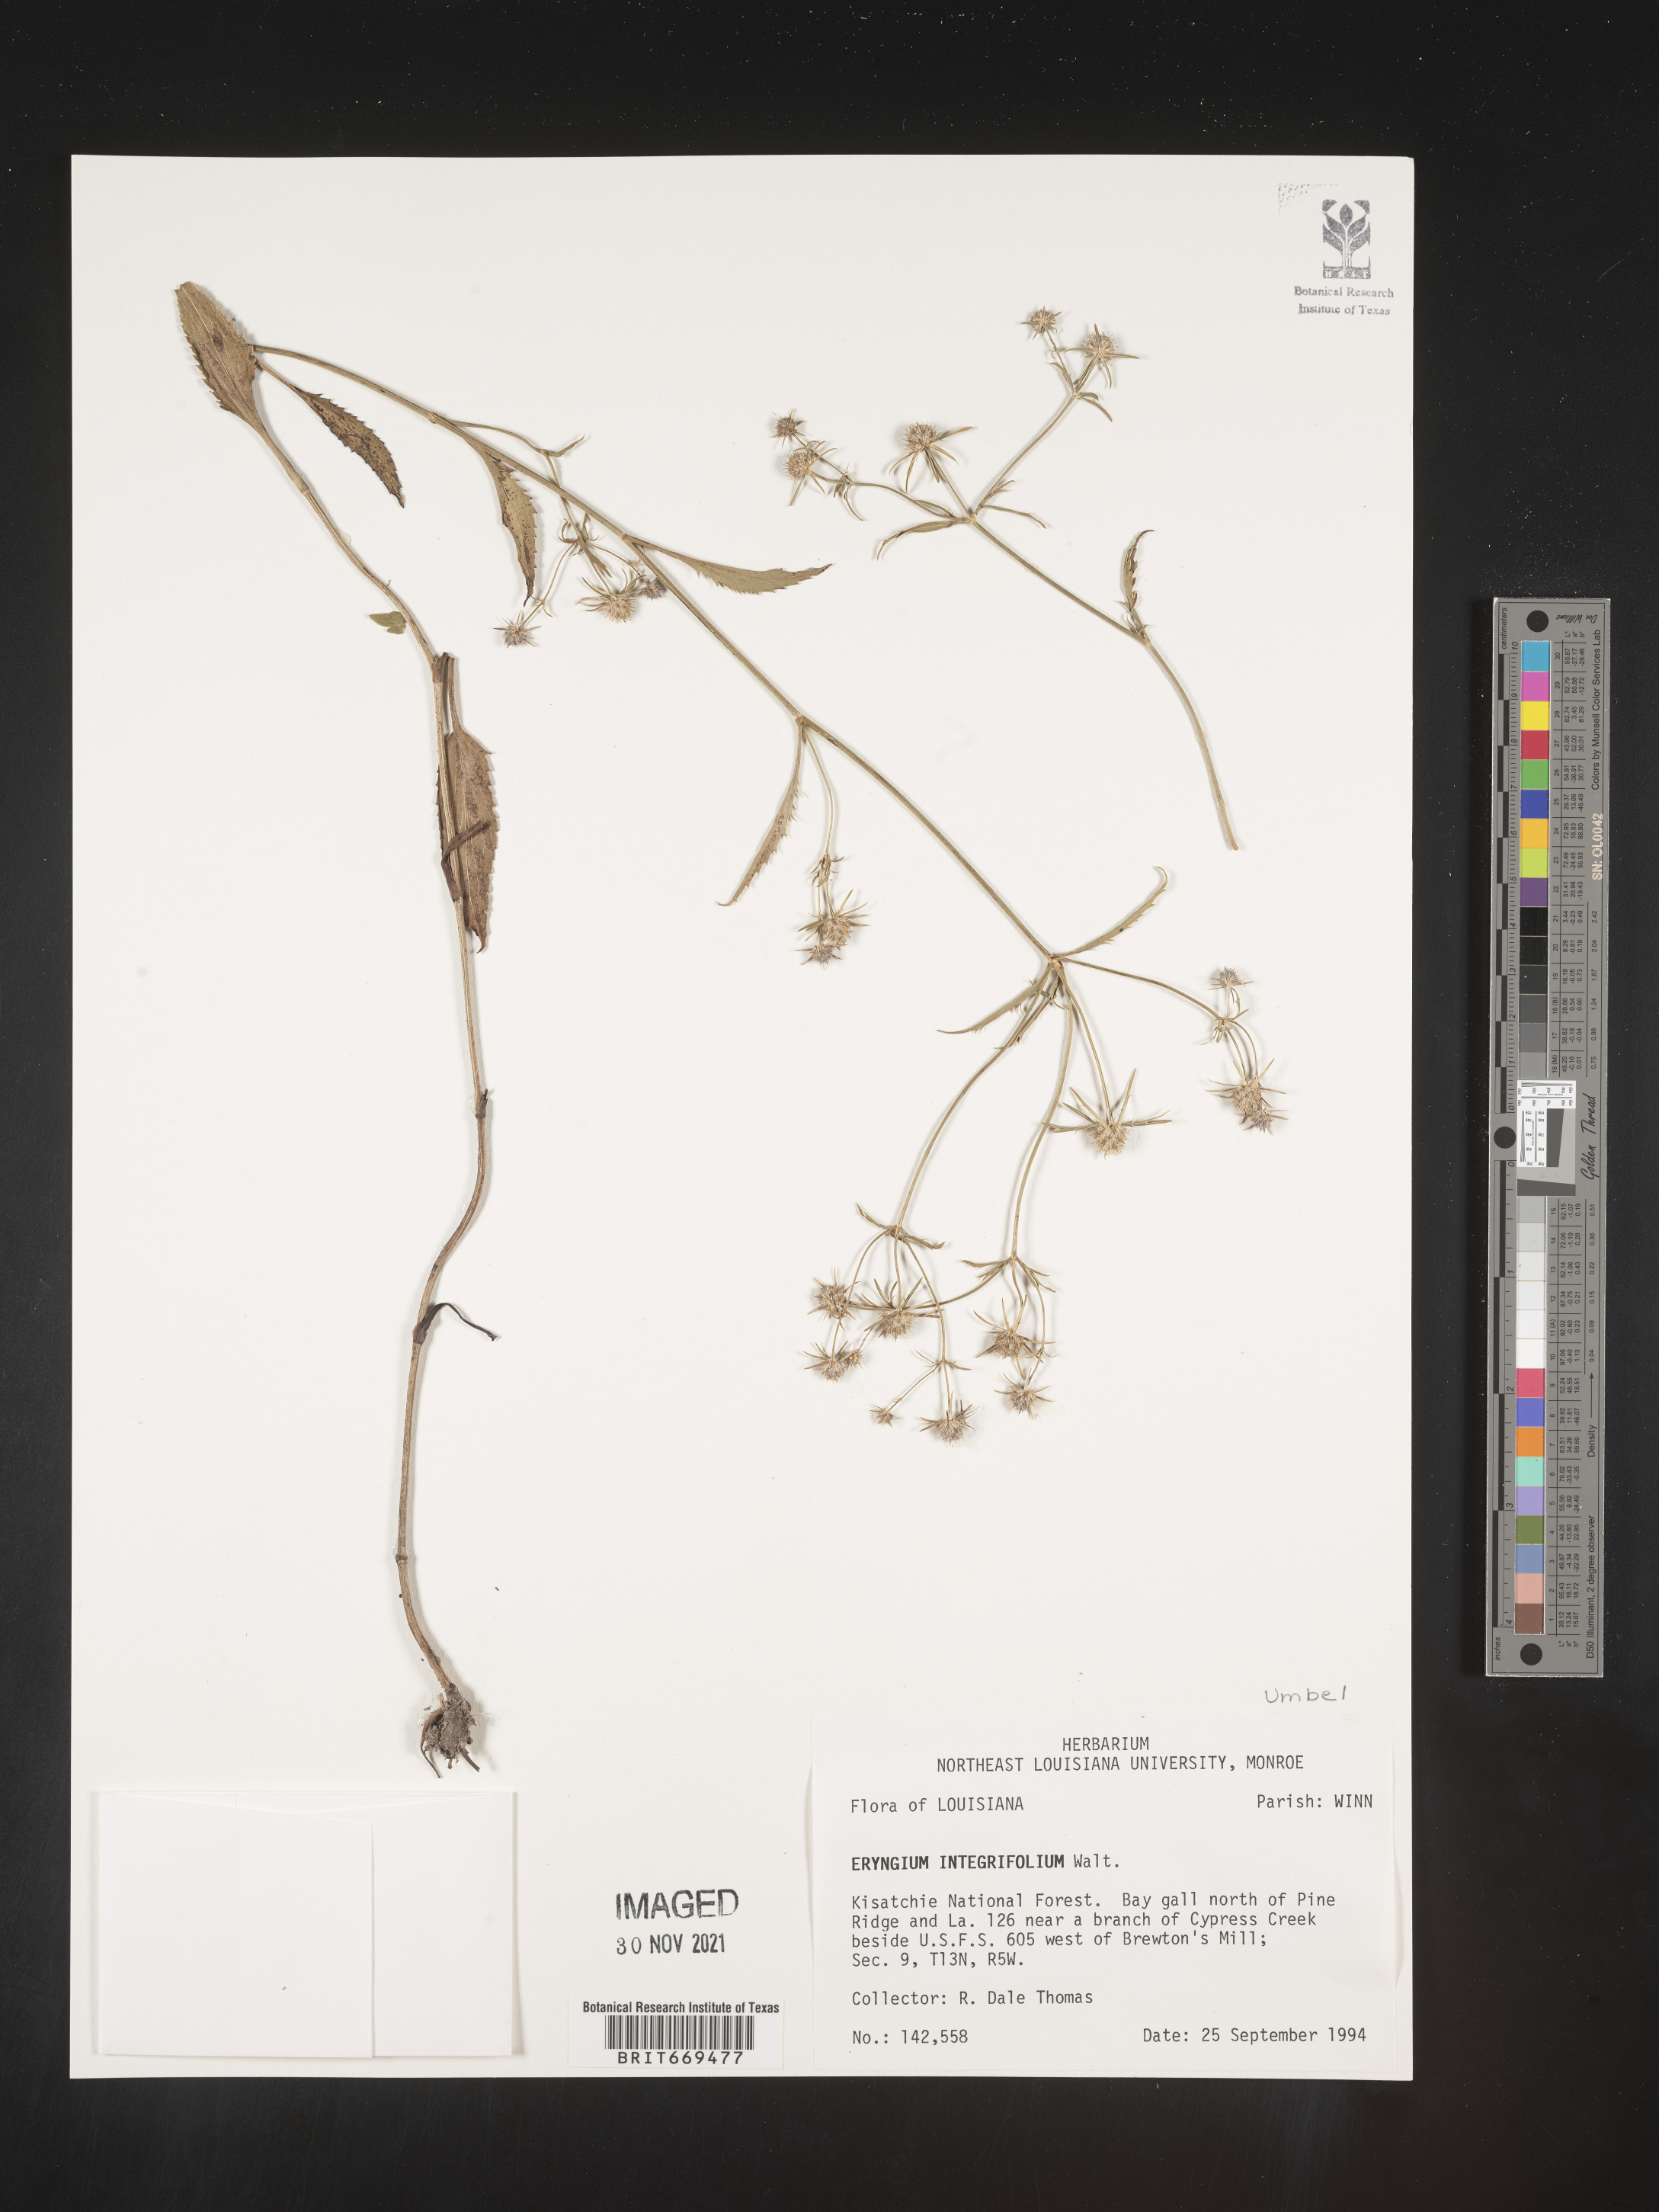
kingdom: Plantae
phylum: Tracheophyta
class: Magnoliopsida
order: Apiales
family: Apiaceae
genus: Eryngium
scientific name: Eryngium integrifolium
